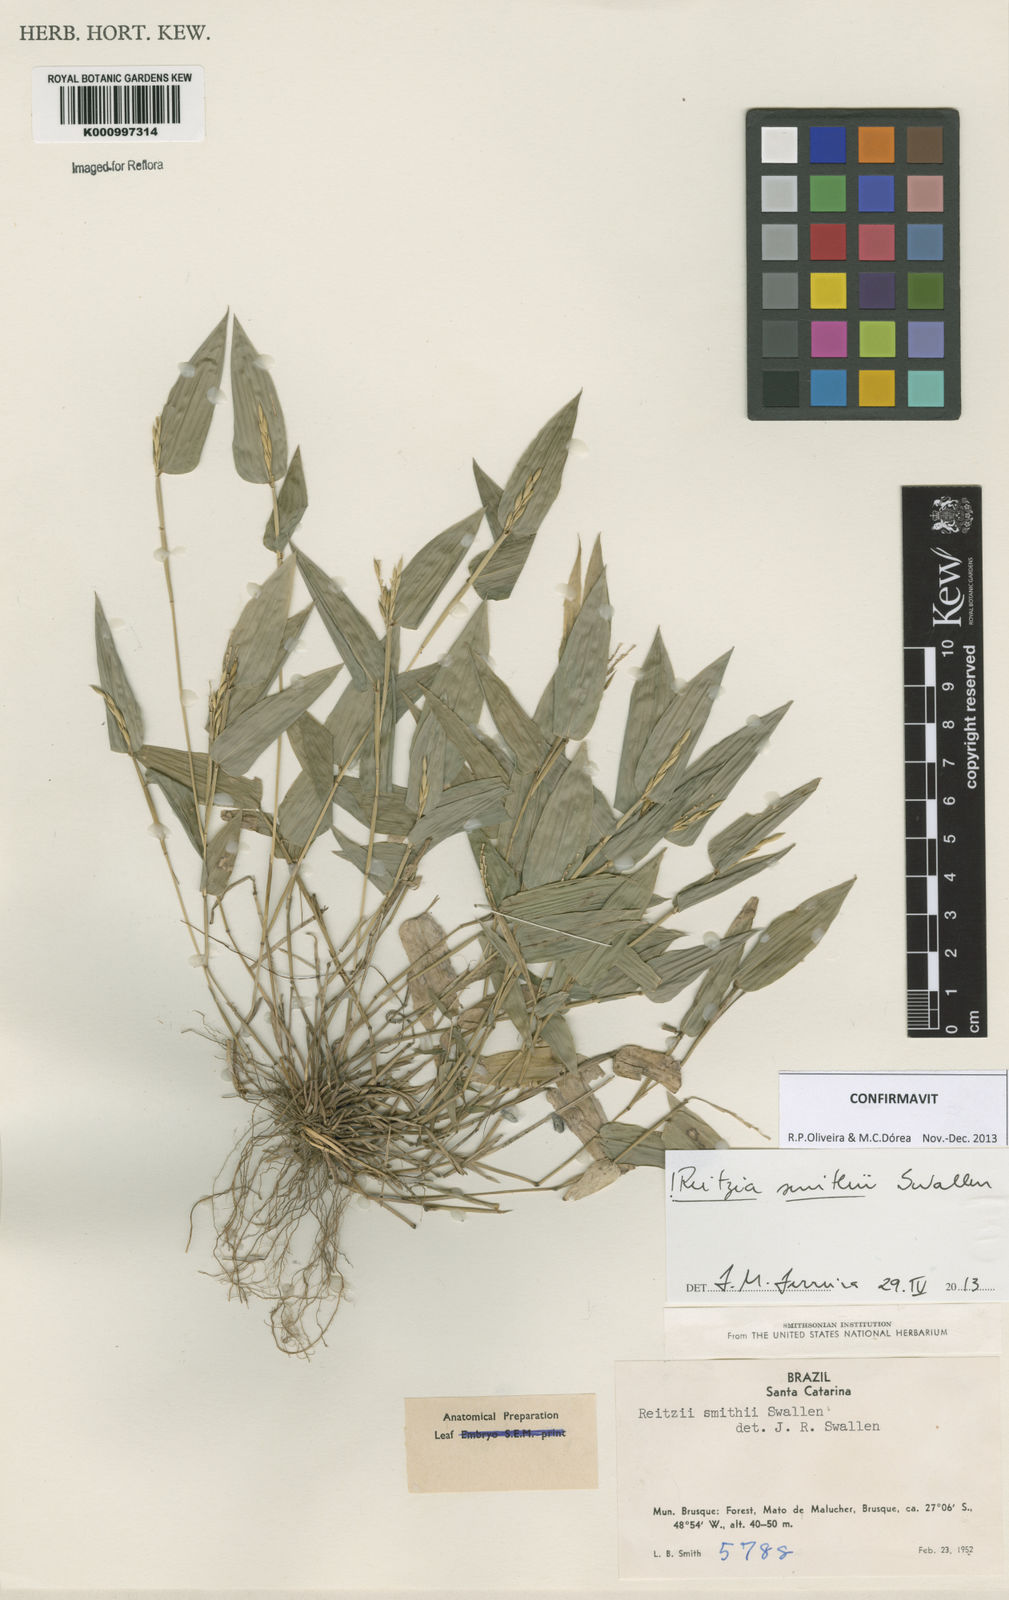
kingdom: Plantae
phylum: Tracheophyta
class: Liliopsida
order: Poales
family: Poaceae
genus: Reitzia
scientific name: Reitzia smithii
